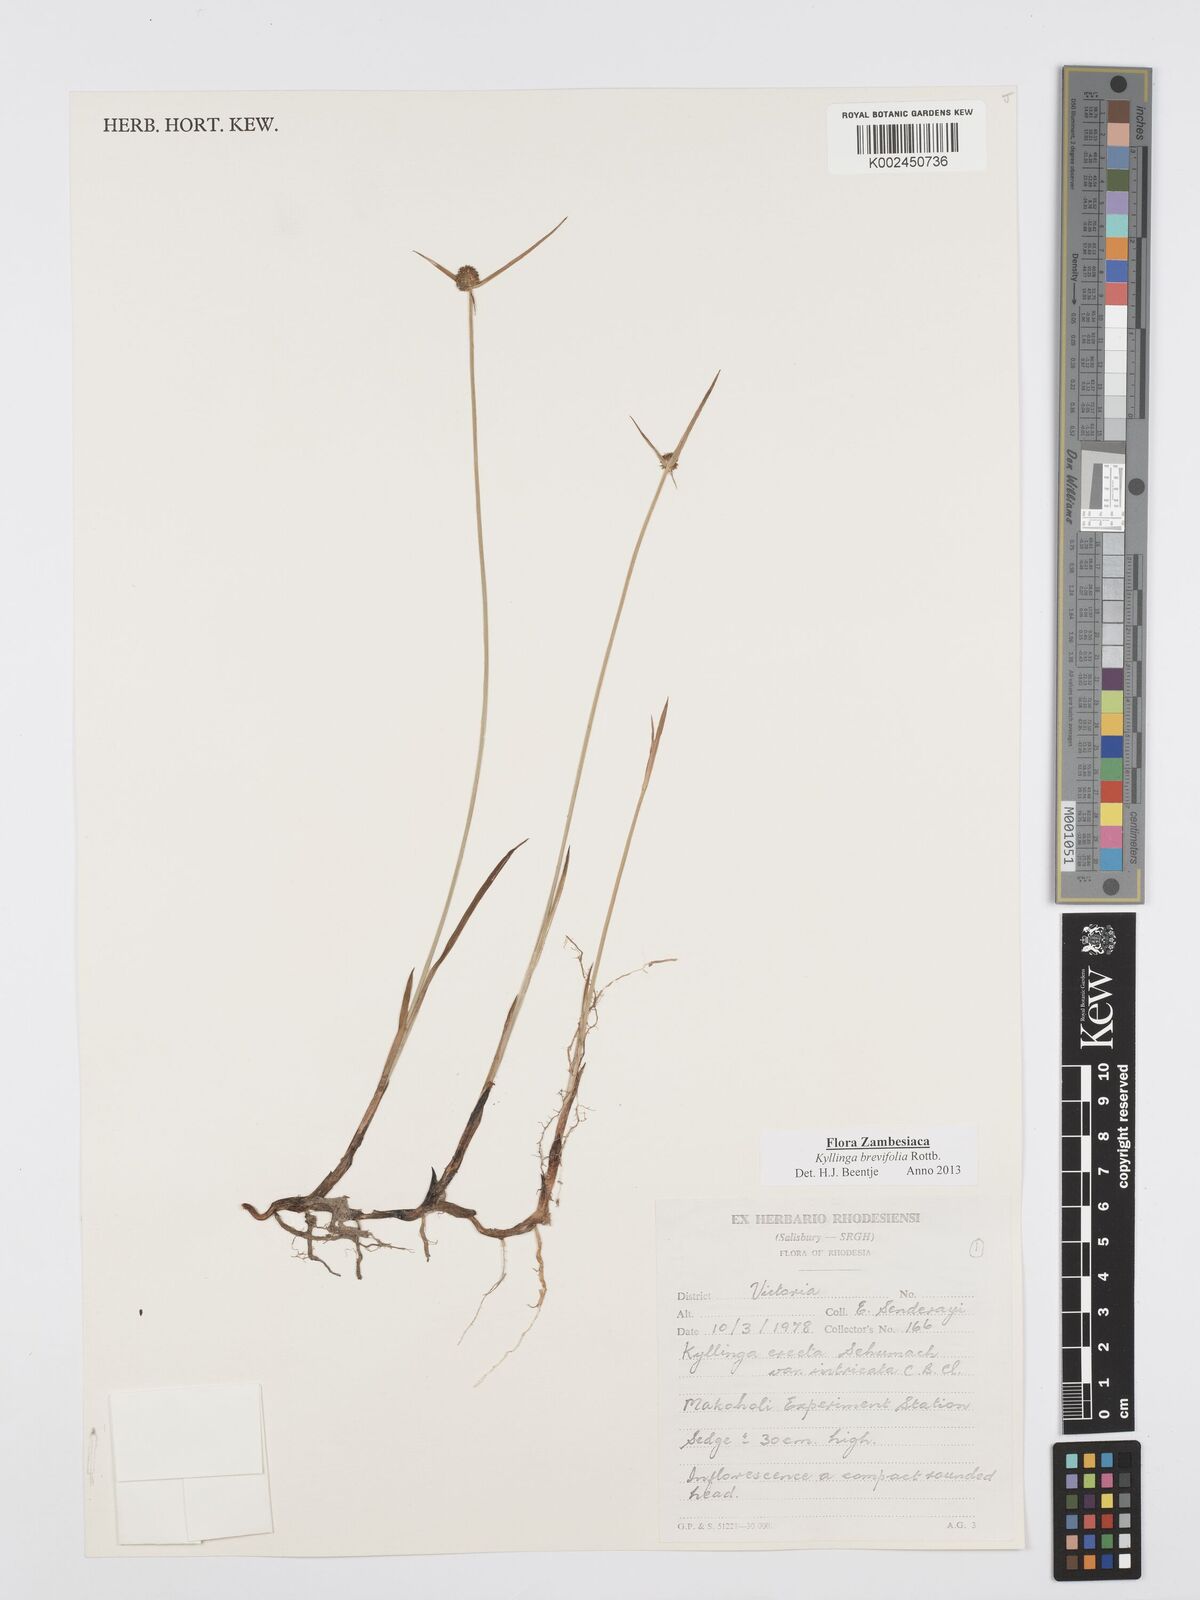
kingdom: Plantae
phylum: Tracheophyta
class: Liliopsida
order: Poales
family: Cyperaceae
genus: Cyperus
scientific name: Cyperus brevifolius
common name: Globe kyllinga
